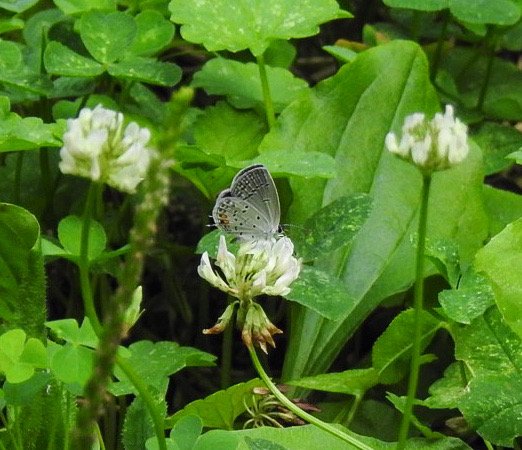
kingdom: Animalia
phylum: Arthropoda
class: Insecta
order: Lepidoptera
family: Lycaenidae
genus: Elkalyce
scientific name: Elkalyce comyntas
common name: Eastern Tailed-Blue
